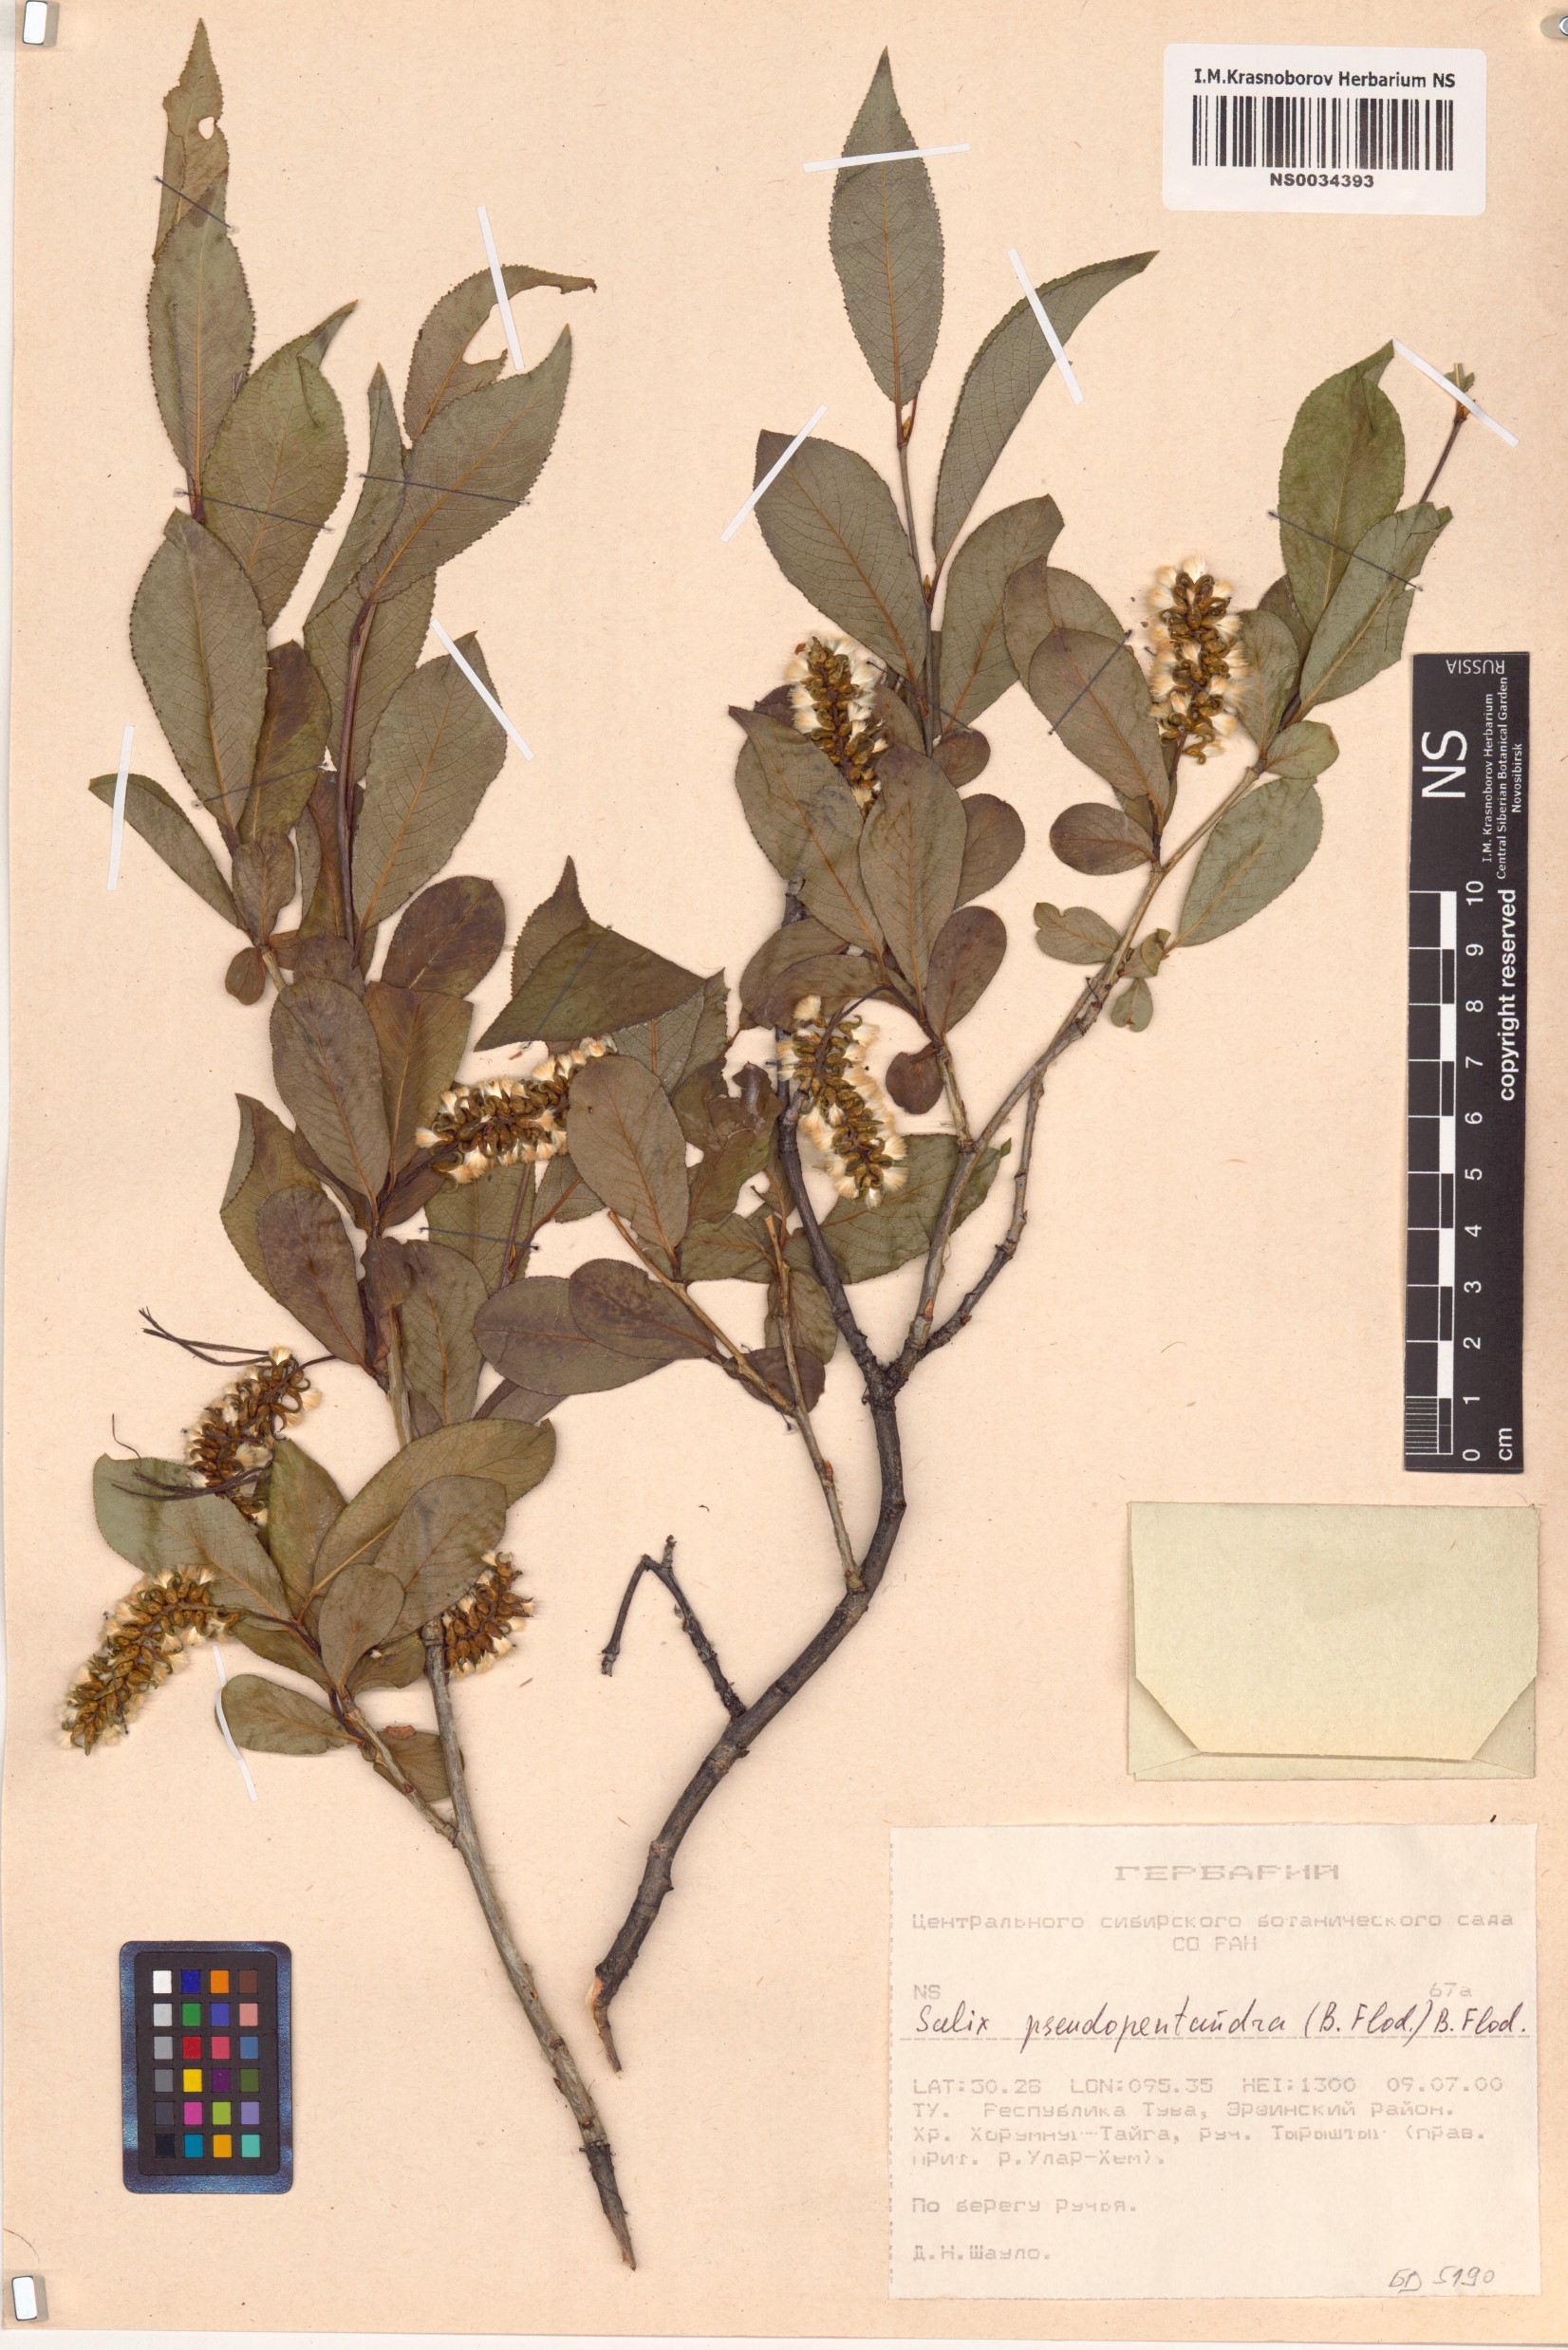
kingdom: Plantae
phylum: Tracheophyta
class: Magnoliopsida
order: Malpighiales
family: Salicaceae
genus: Salix
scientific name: Salix pseudopentandra
